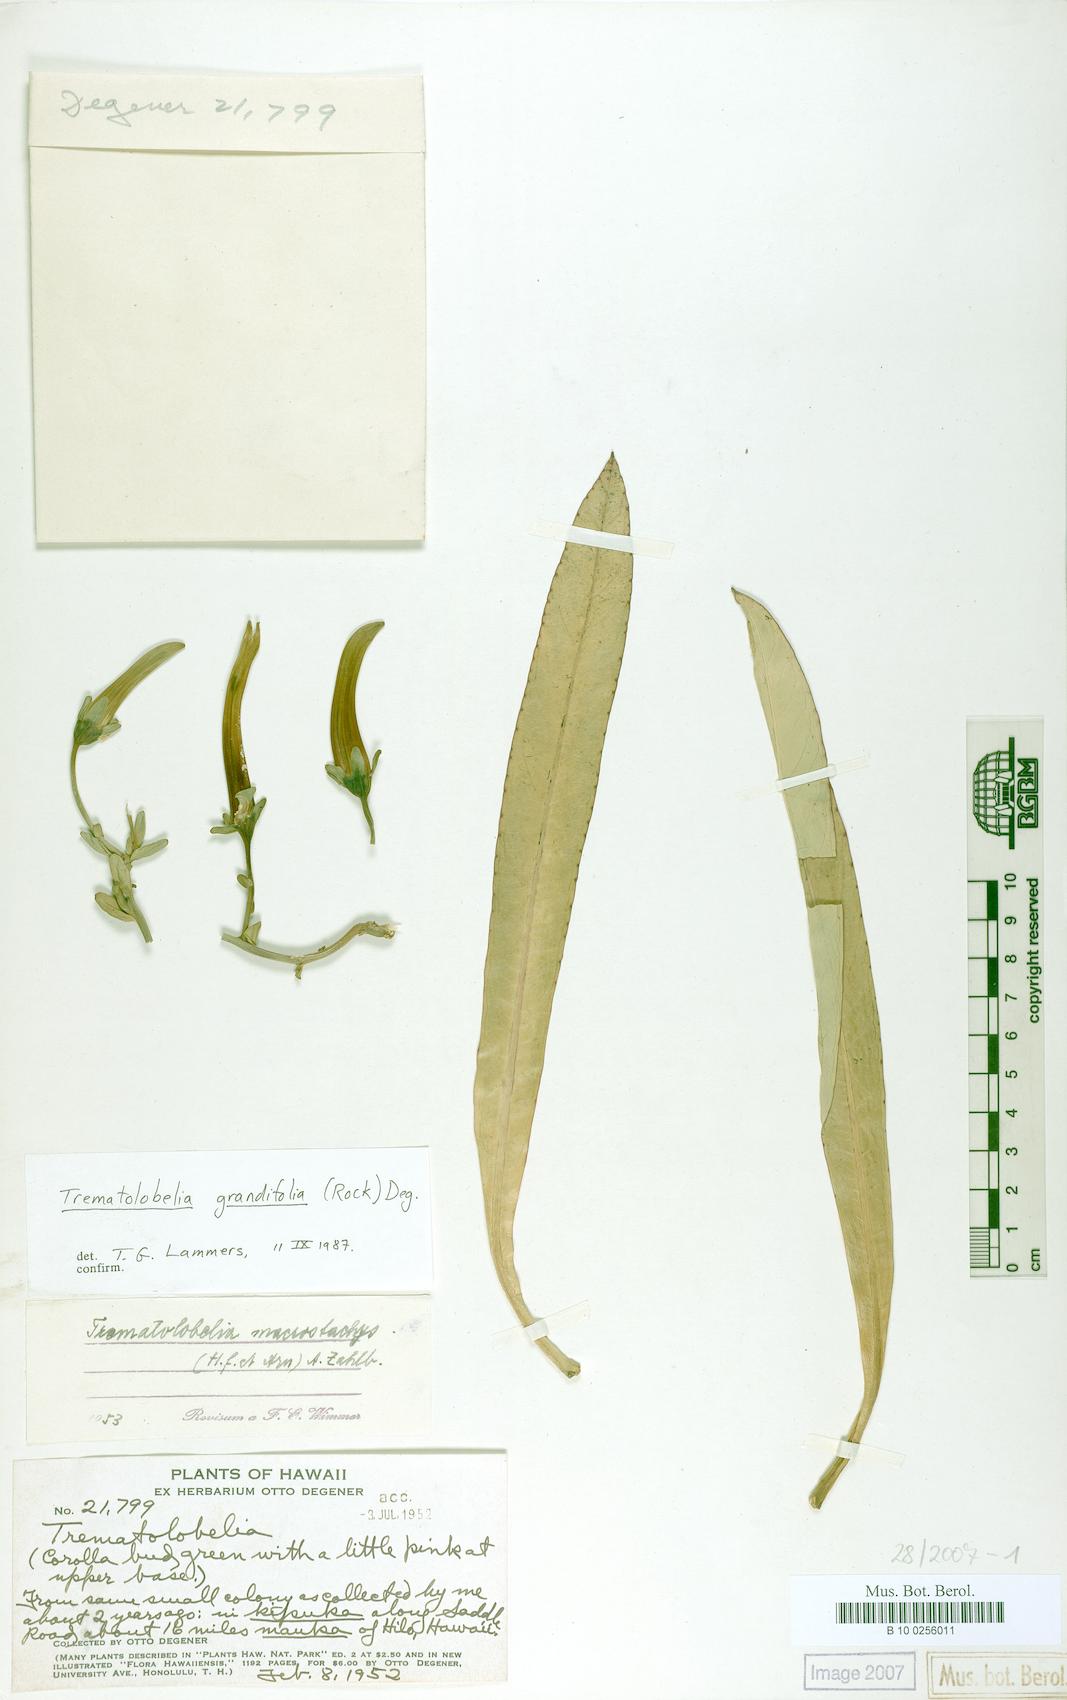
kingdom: Plantae
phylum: Tracheophyta
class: Magnoliopsida
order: Asterales
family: Campanulaceae
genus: Trematolobelia
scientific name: Trematolobelia wimmeri
